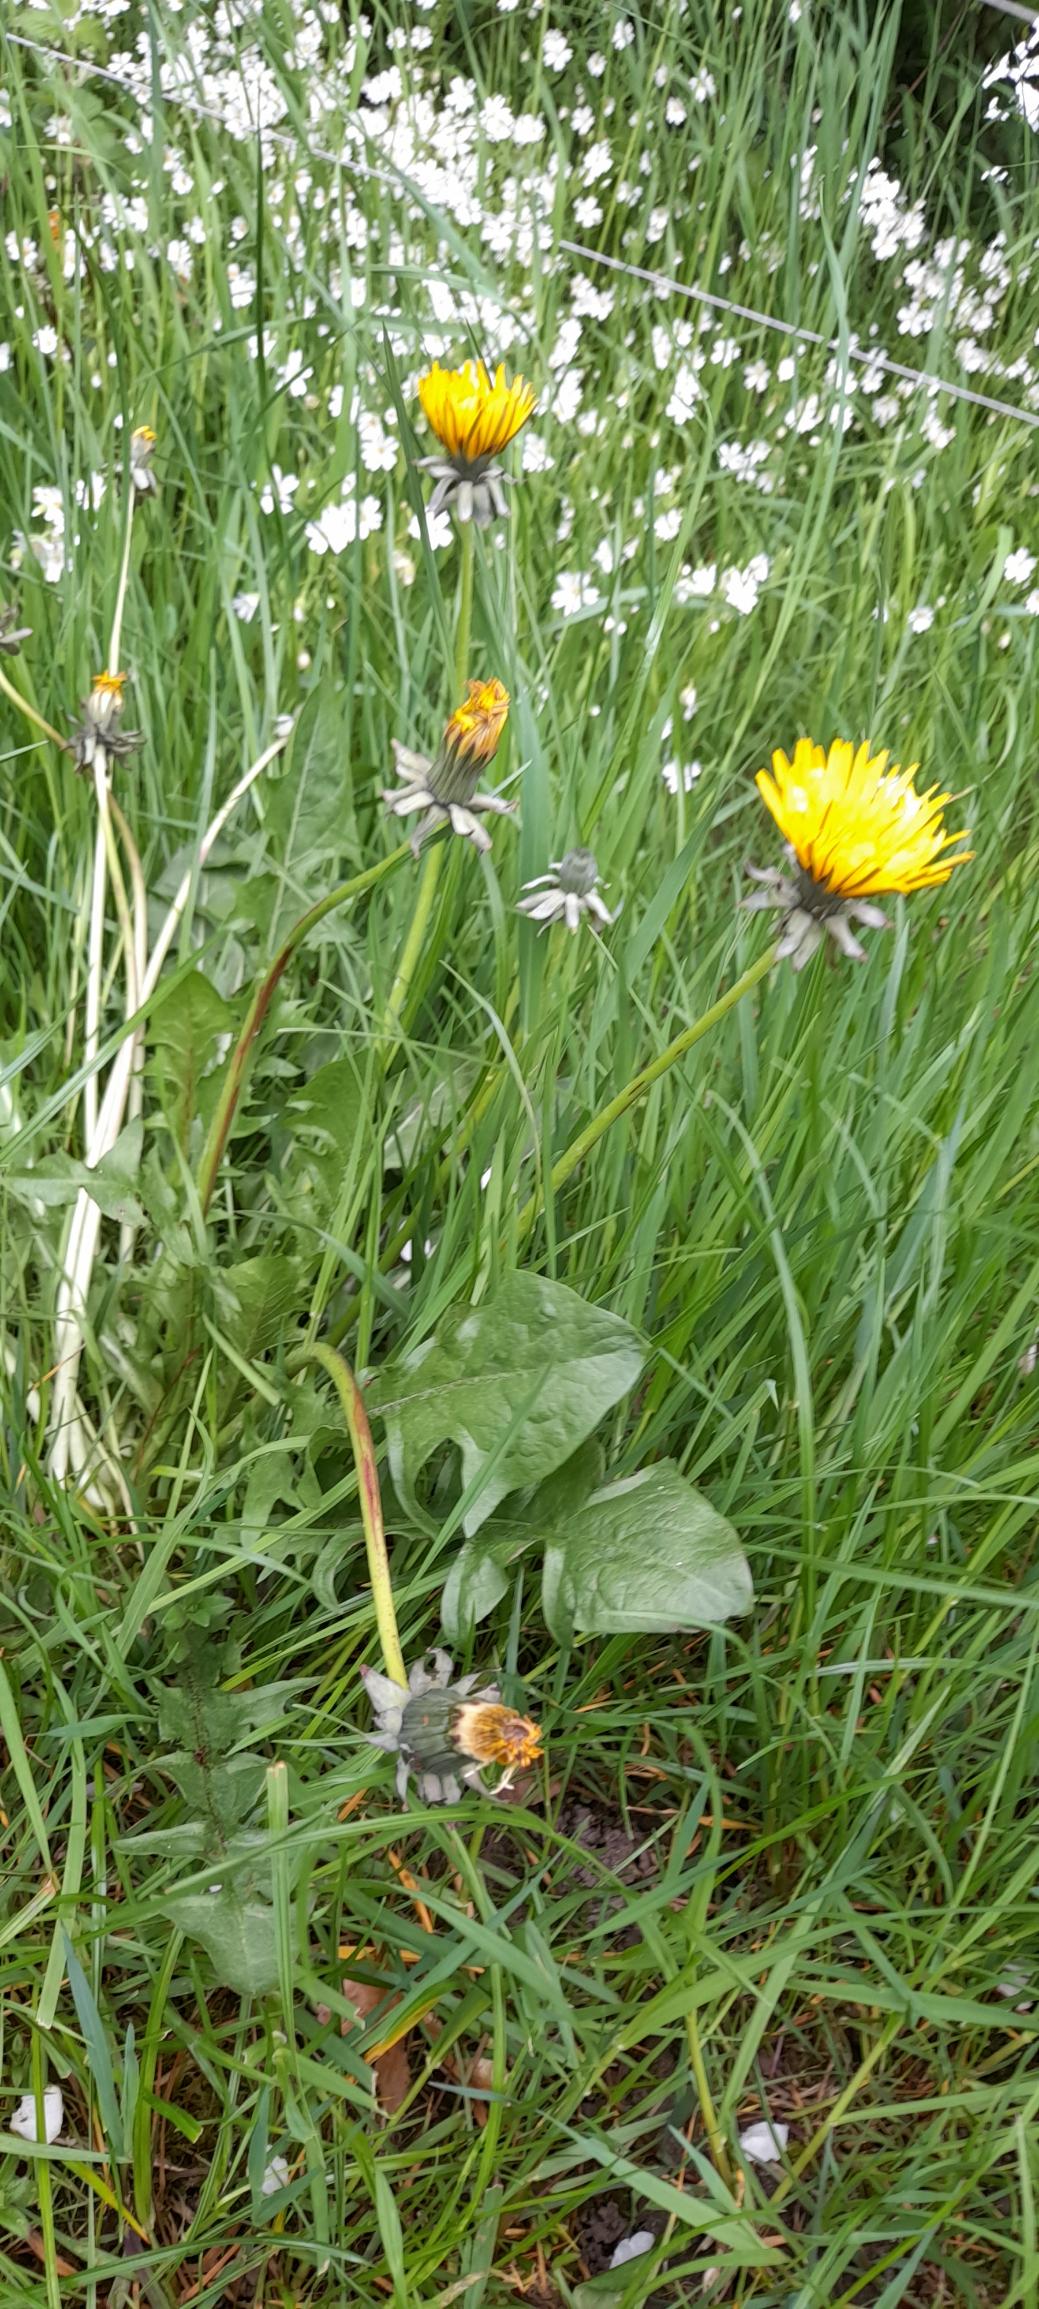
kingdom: Plantae
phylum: Tracheophyta
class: Magnoliopsida
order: Asterales
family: Asteraceae
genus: Taraxacum
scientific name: Taraxacum
